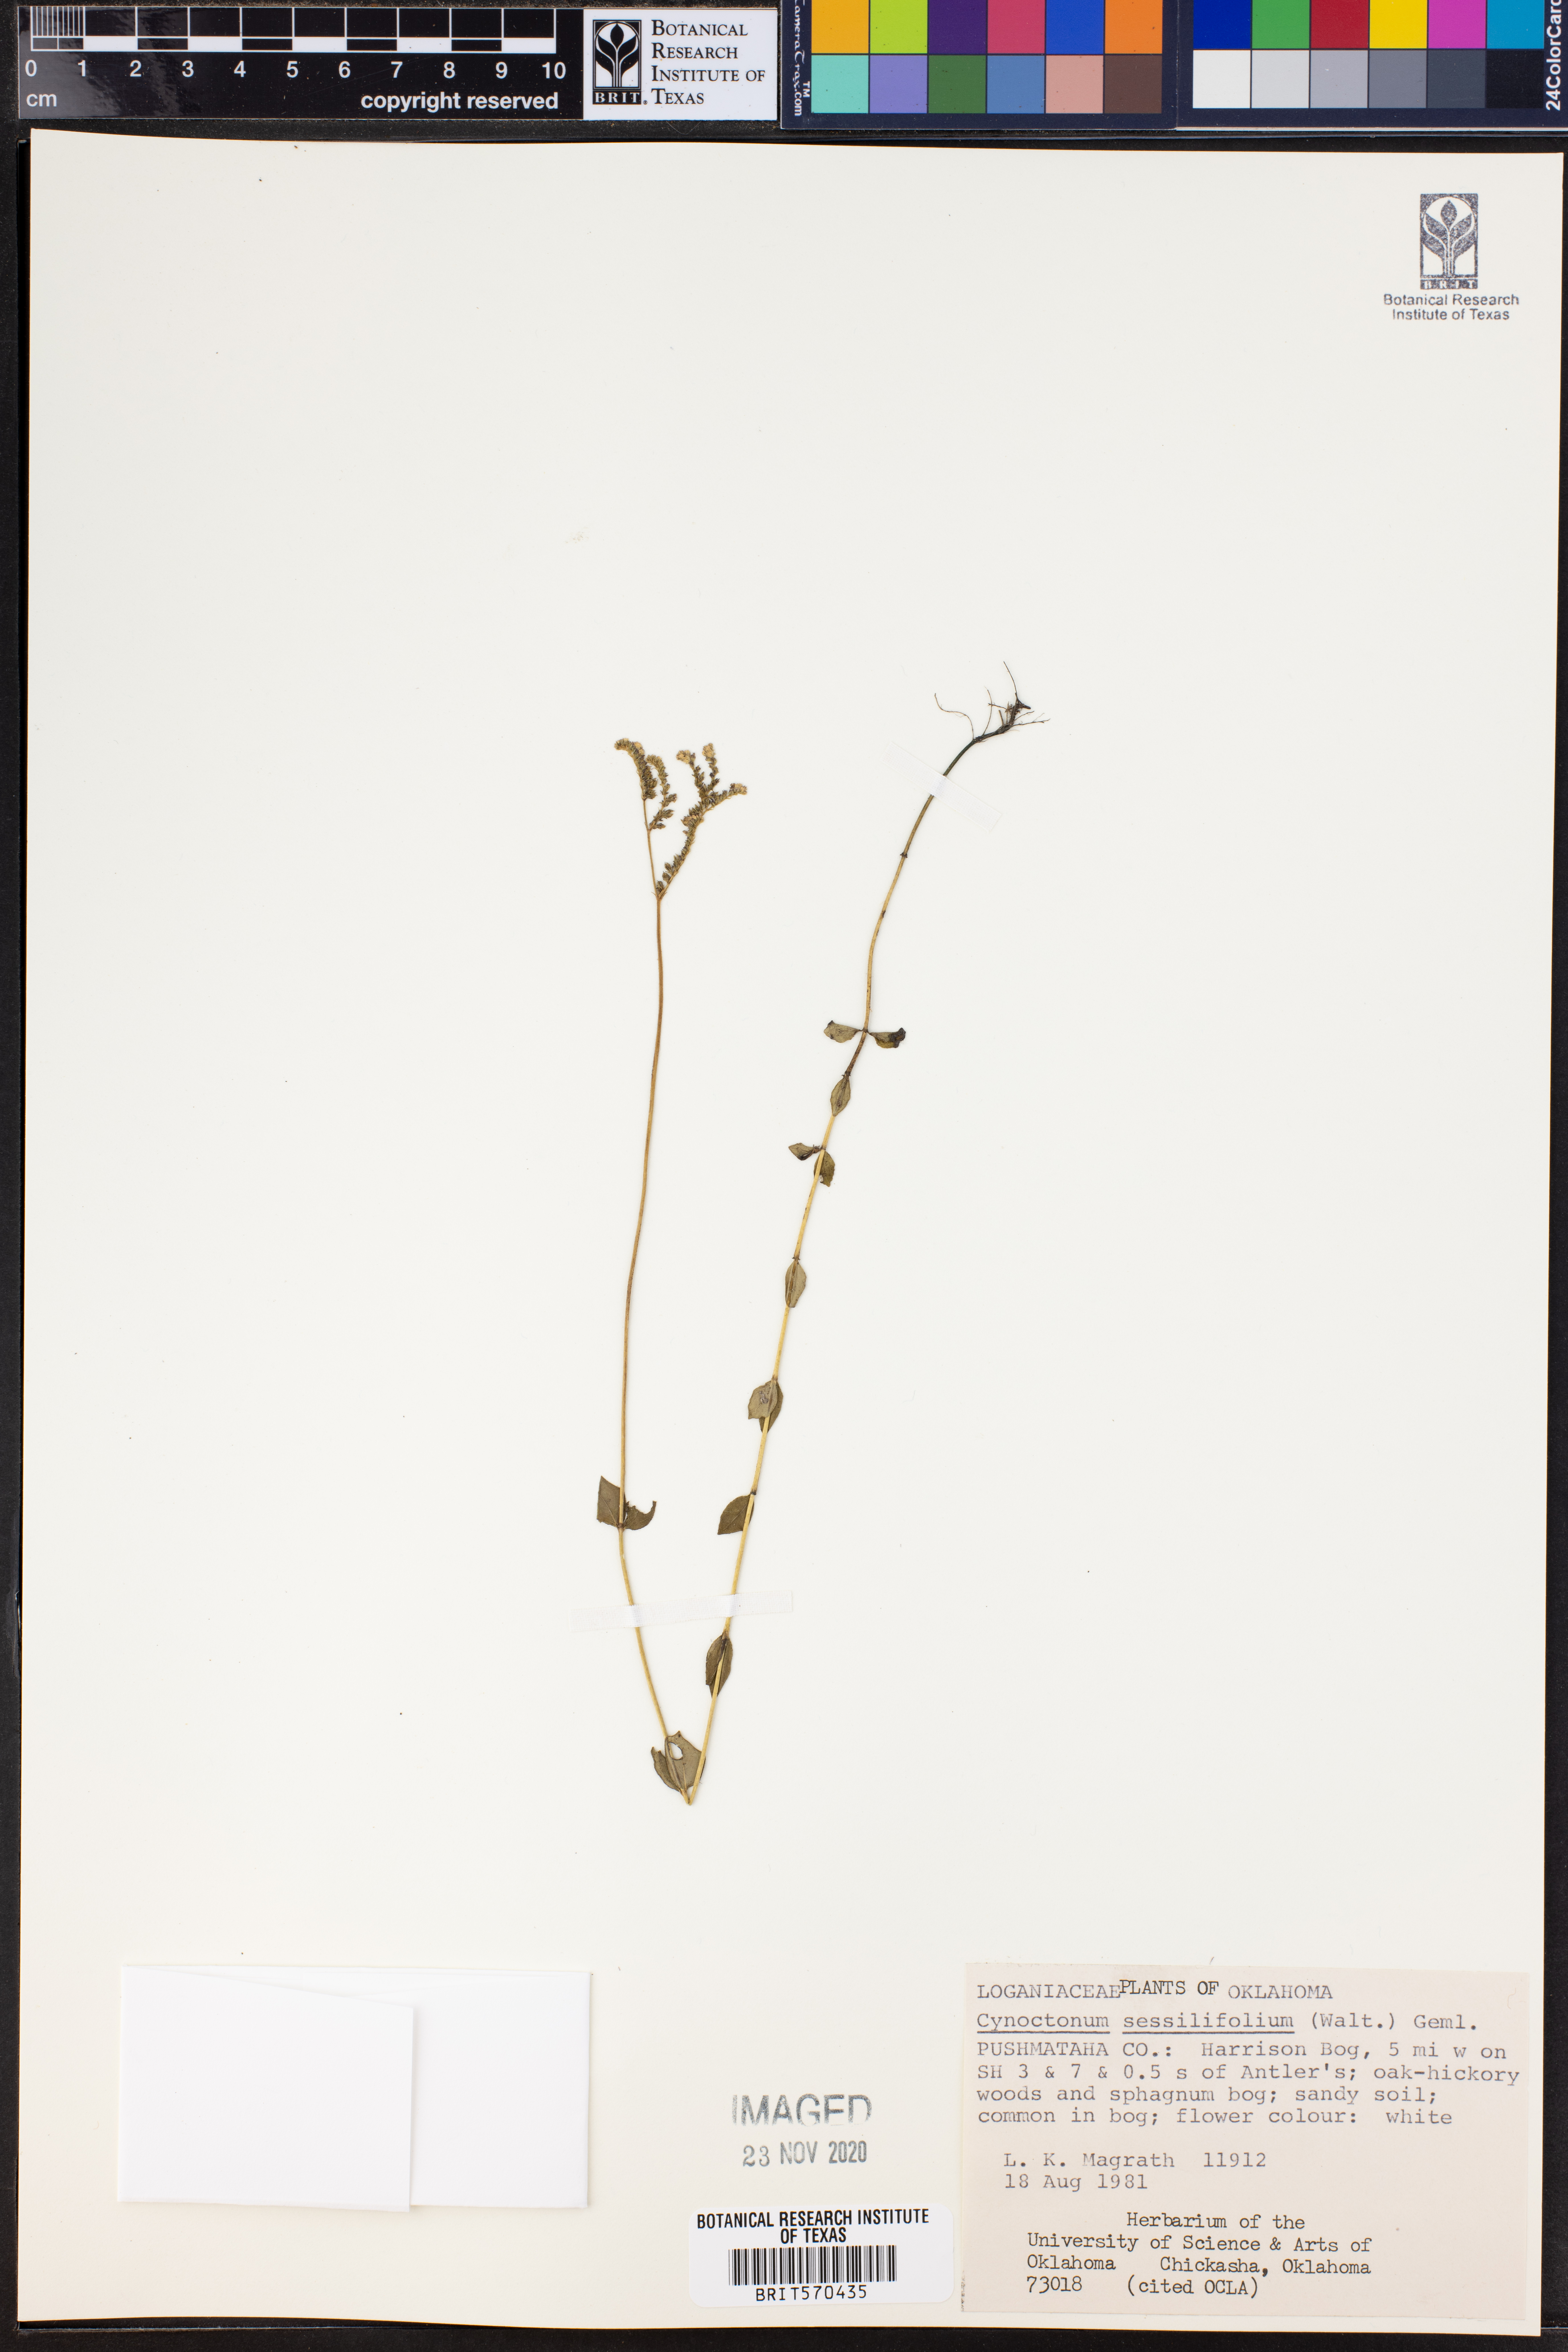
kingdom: Plantae
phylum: Tracheophyta
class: Magnoliopsida
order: Gentianales
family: Loganiaceae
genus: Mitreola
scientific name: Mitreola sessilifolia
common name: Swamp hornpod
